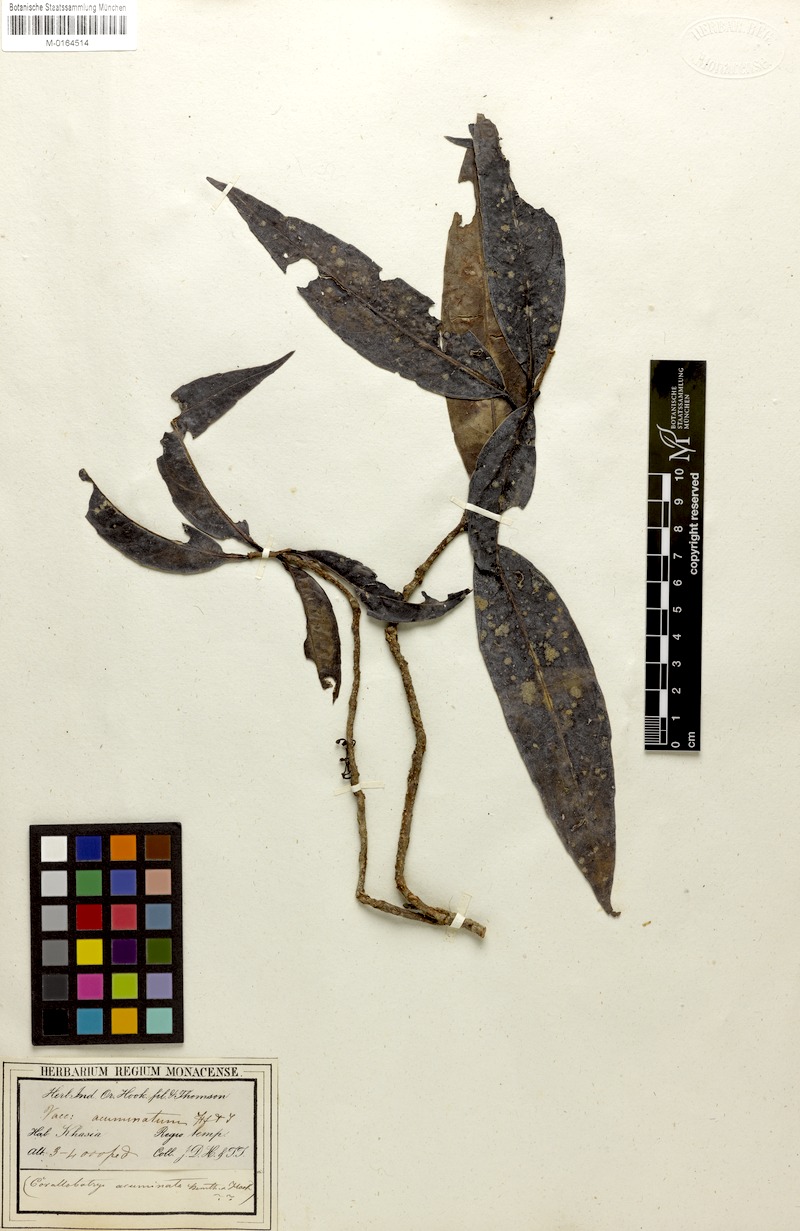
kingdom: Plantae
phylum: Tracheophyta
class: Magnoliopsida
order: Ericales
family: Ericaceae
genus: Disterigma
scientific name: Disterigma acuminatum
